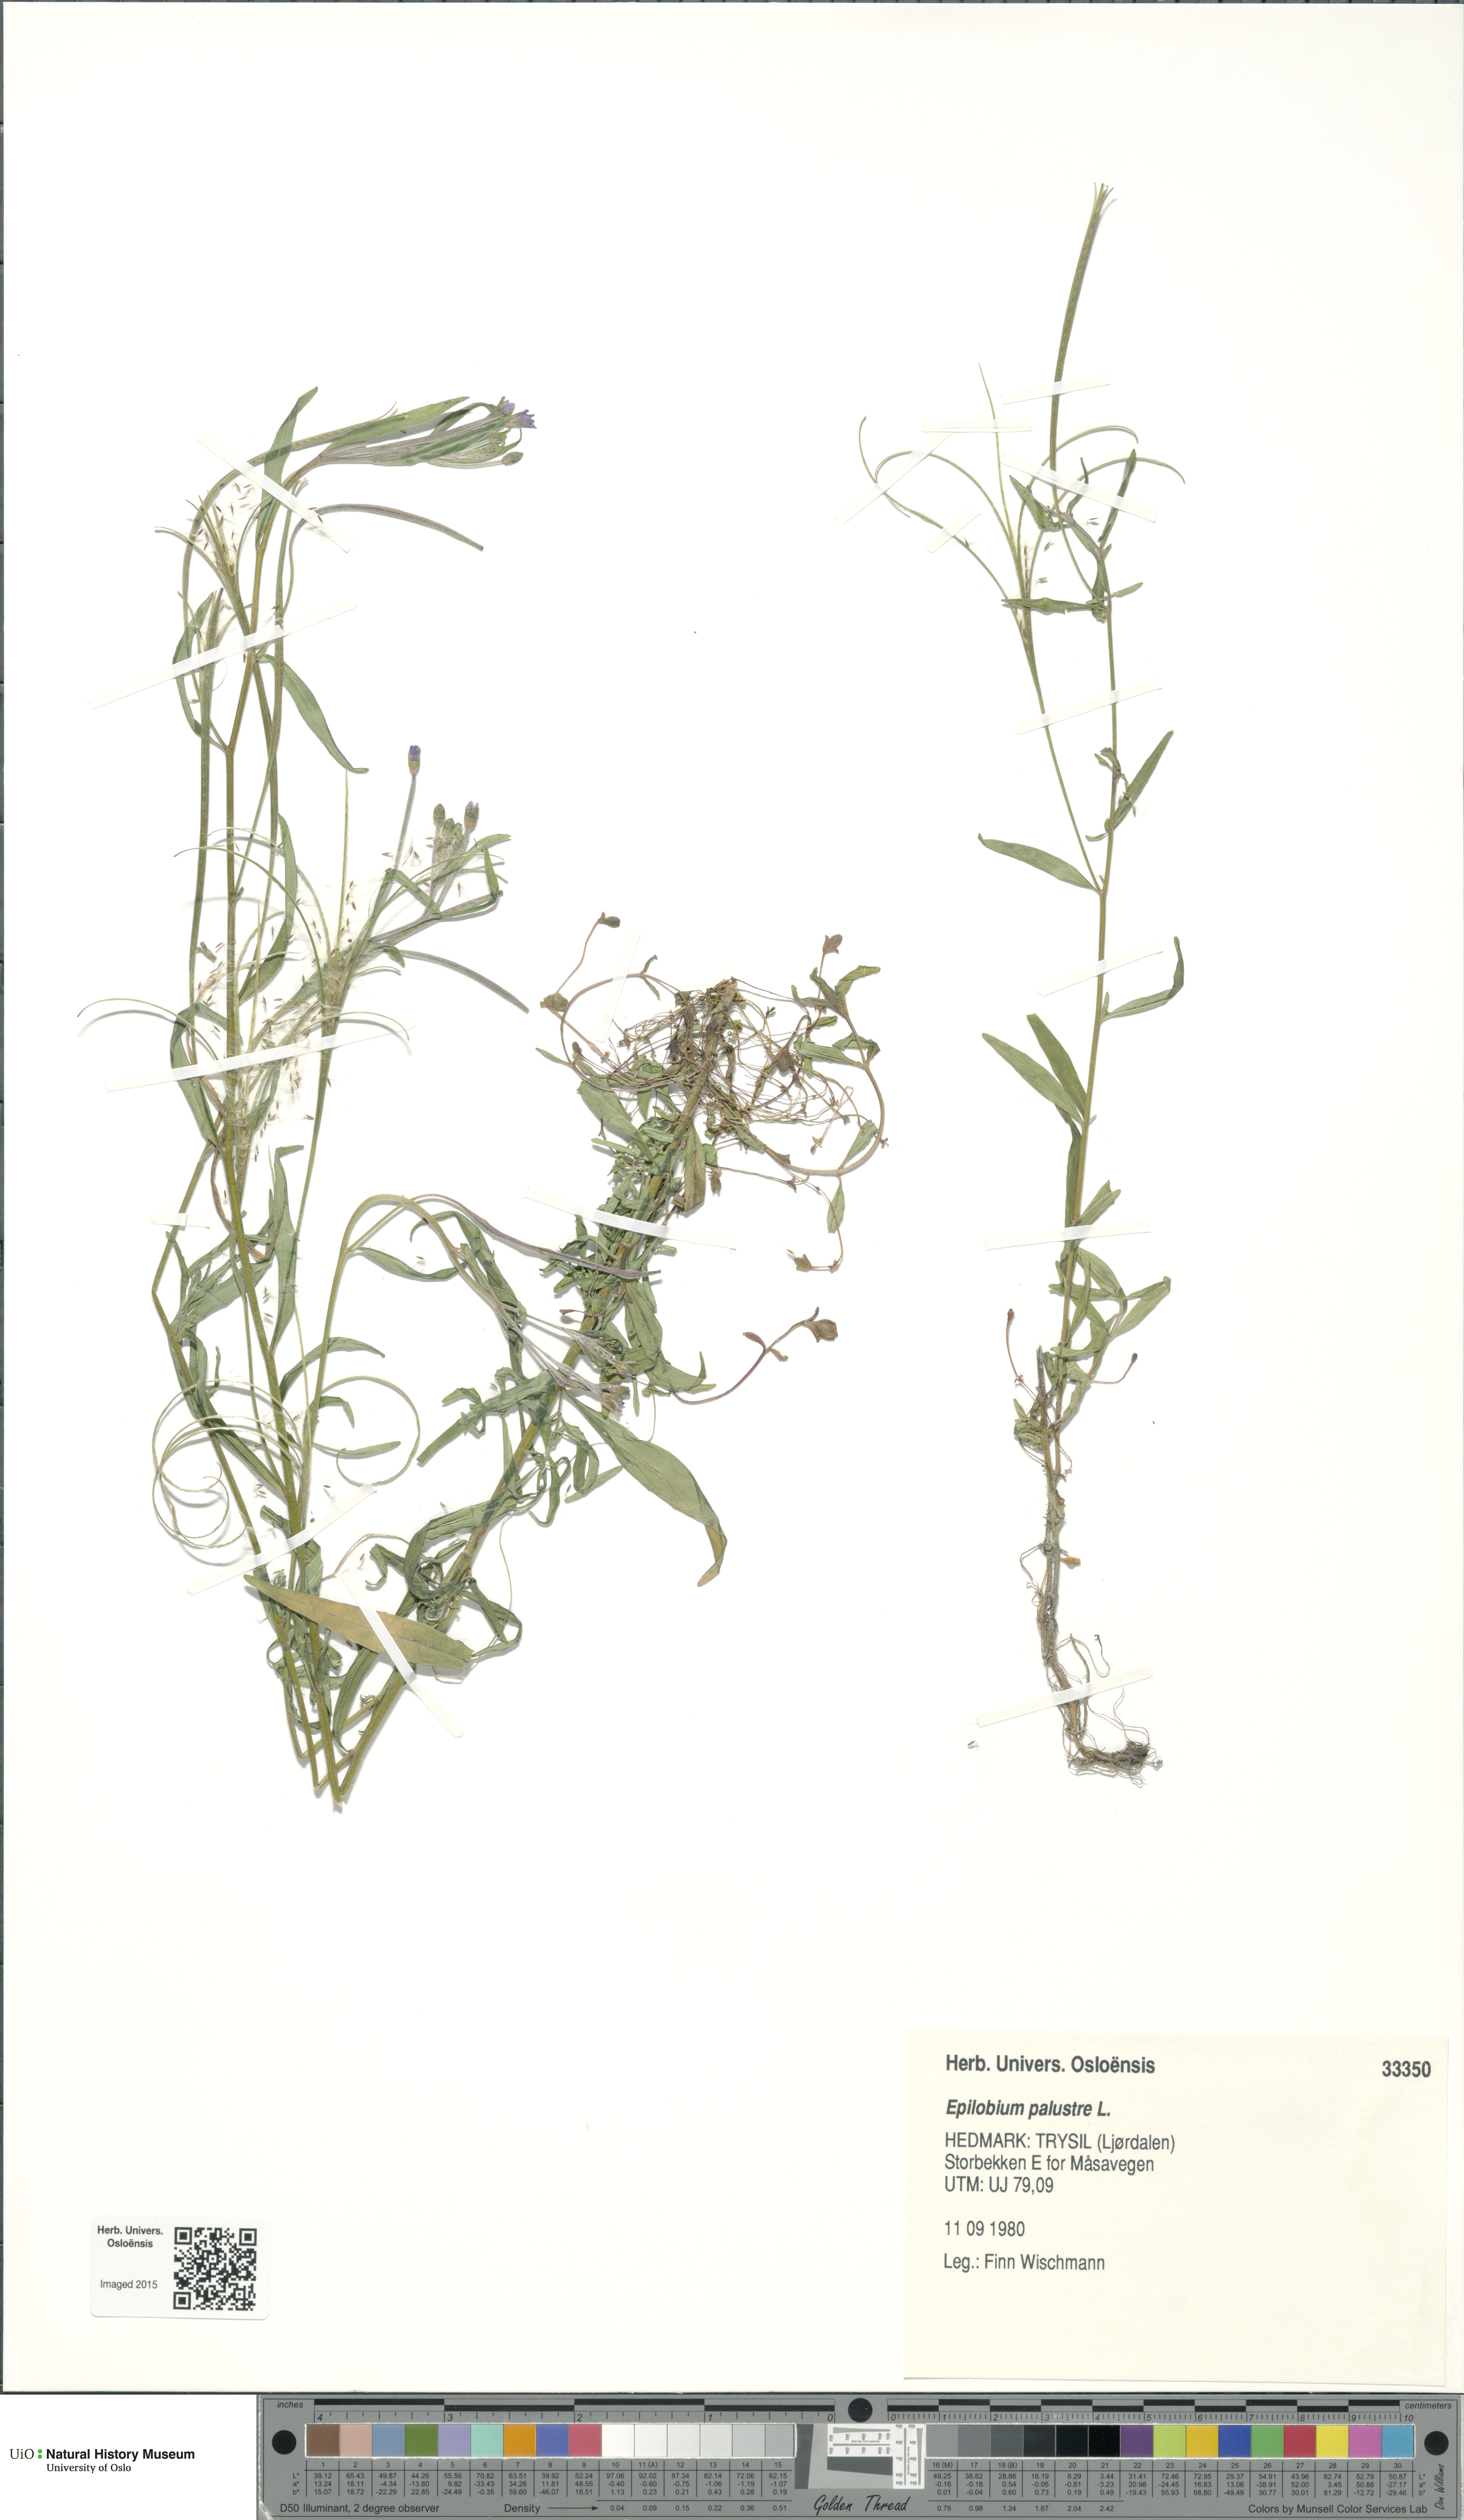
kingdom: Plantae
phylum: Tracheophyta
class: Magnoliopsida
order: Myrtales
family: Onagraceae
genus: Epilobium
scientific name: Epilobium palustre
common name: Marsh willowherb
